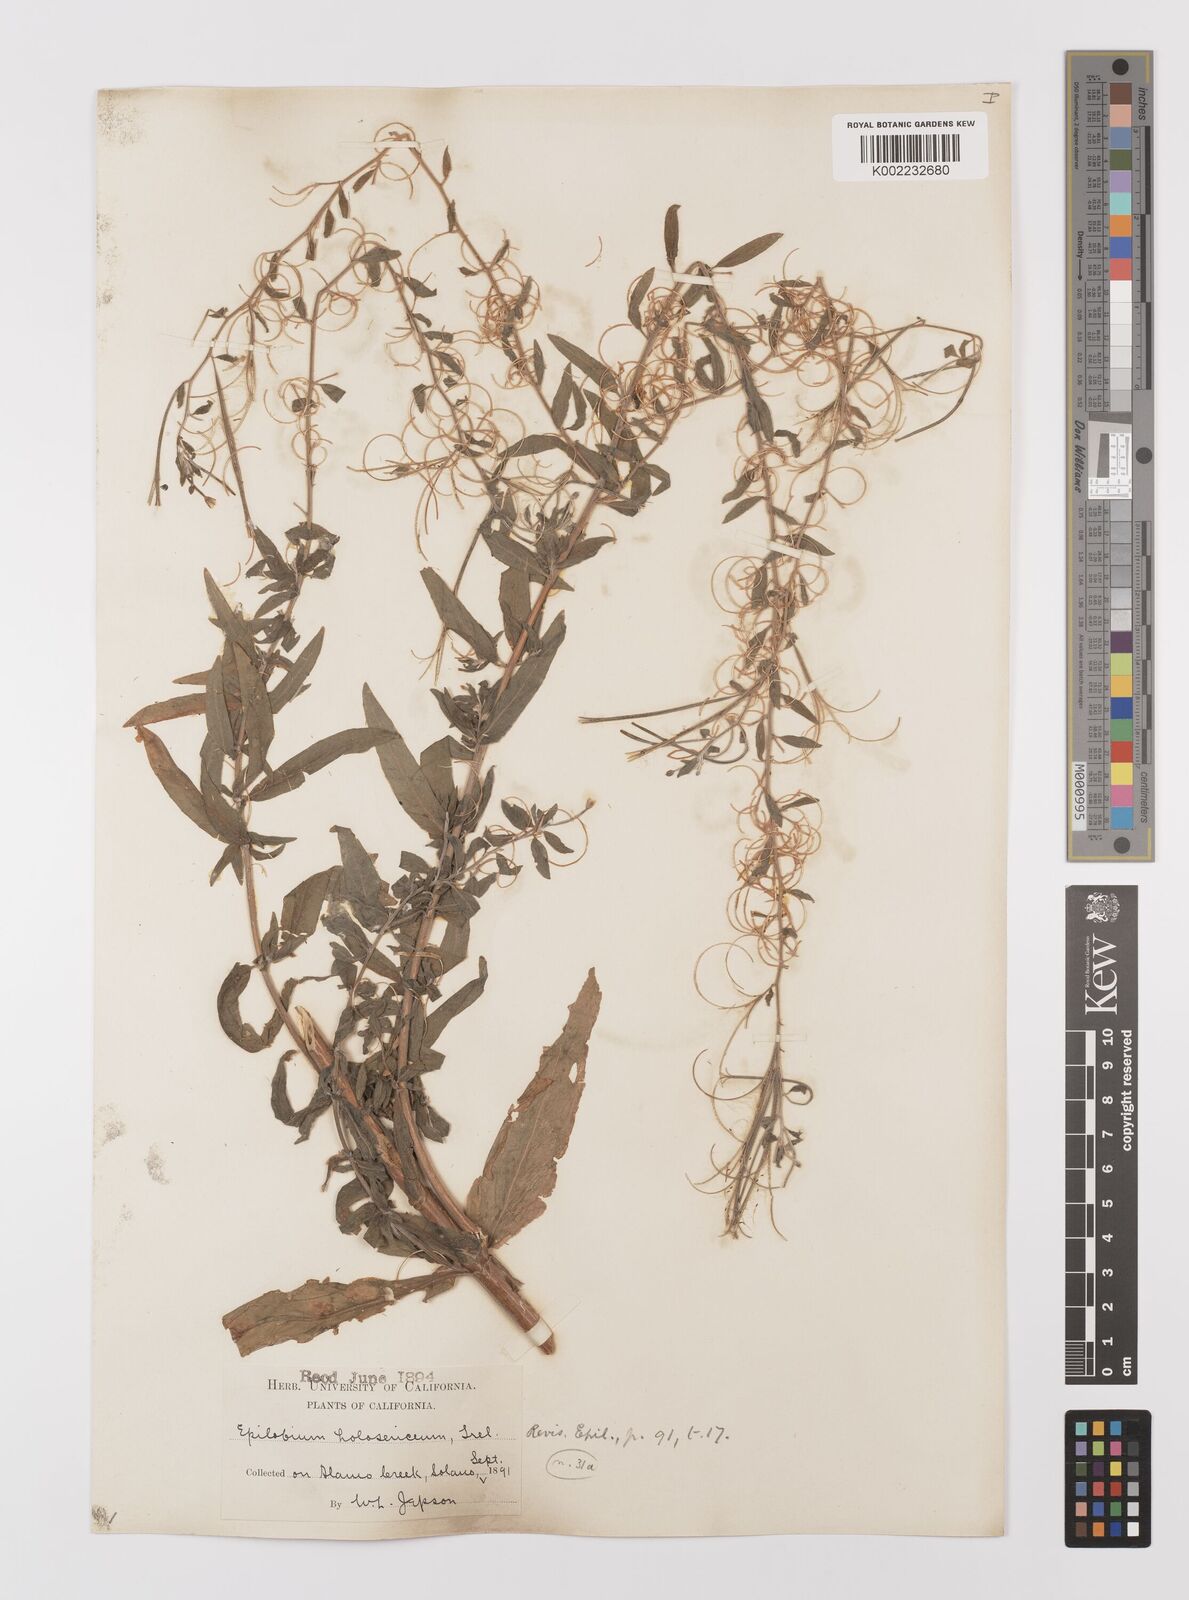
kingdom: Plantae
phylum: Tracheophyta
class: Magnoliopsida
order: Myrtales
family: Onagraceae
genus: Epilobium
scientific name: Epilobium ciliatum
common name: American willowherb
